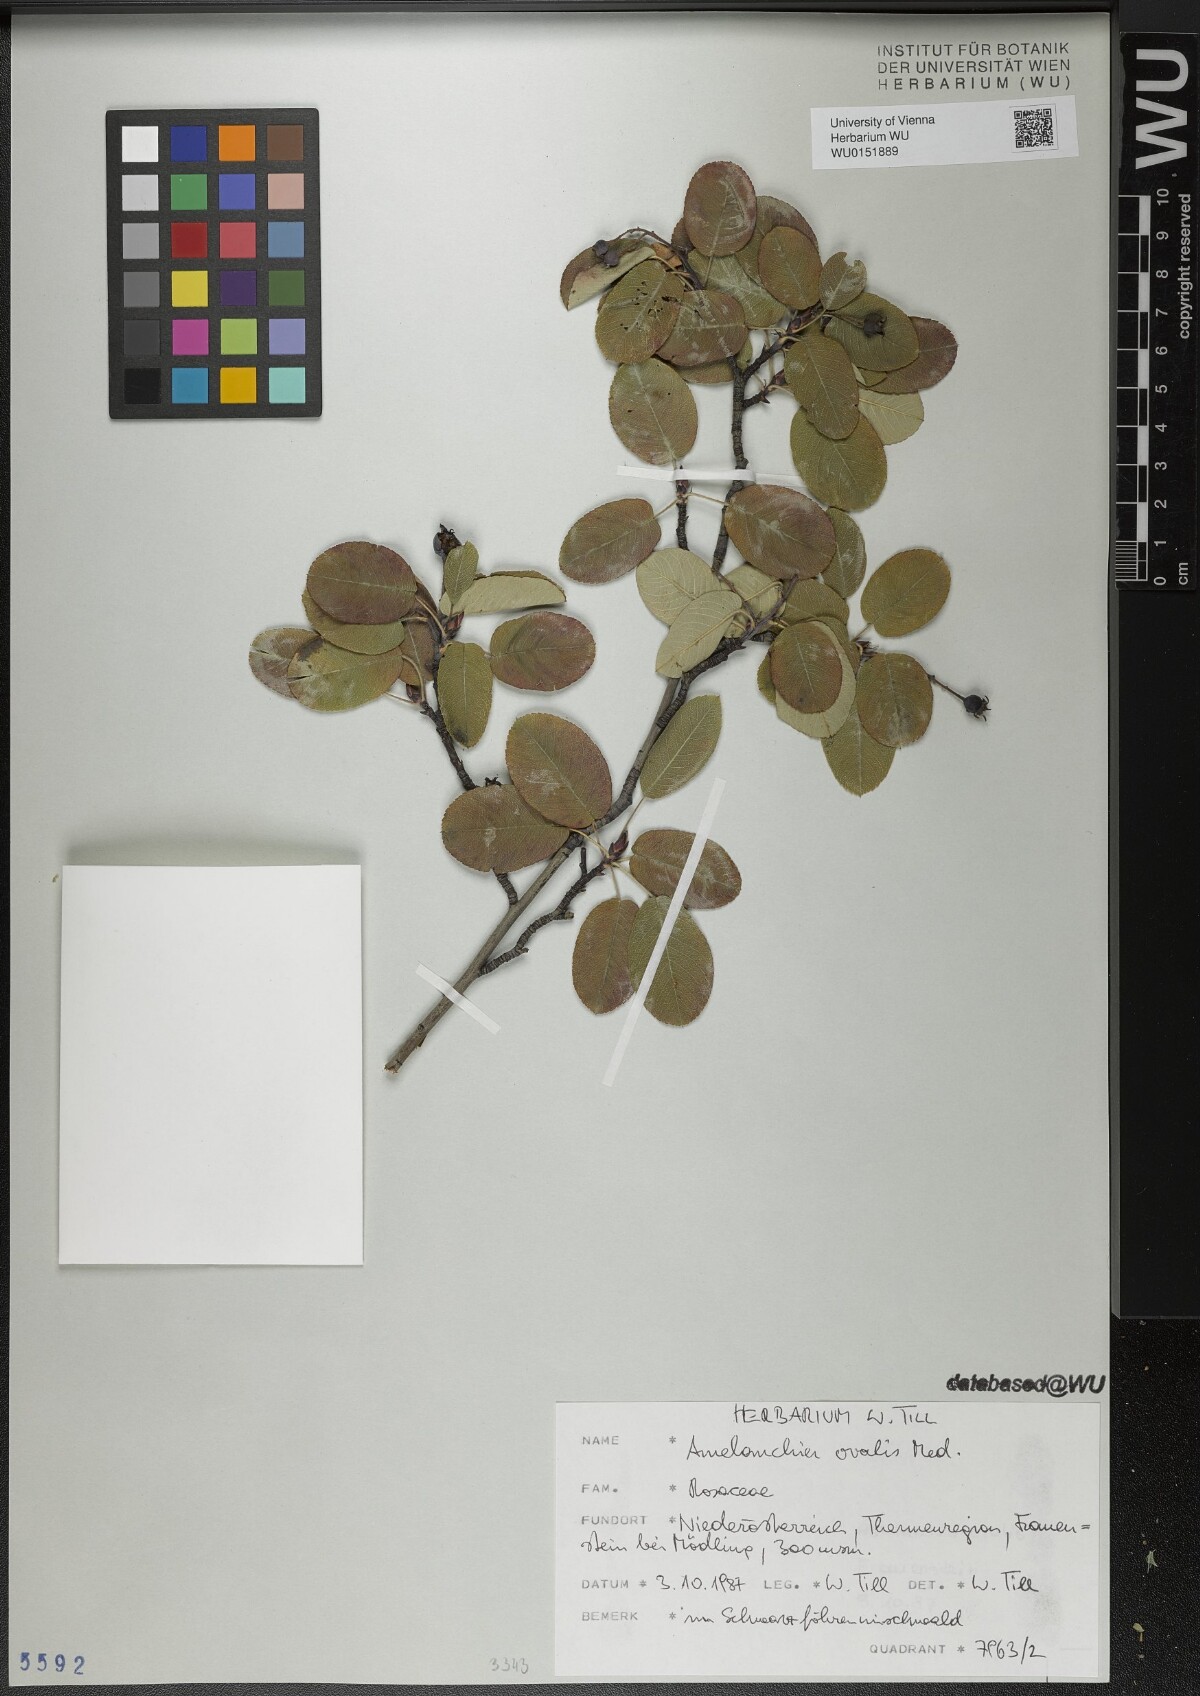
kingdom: Plantae
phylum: Tracheophyta
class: Magnoliopsida
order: Rosales
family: Rosaceae
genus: Amelanchier
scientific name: Amelanchier ovalis
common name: Serviceberry
